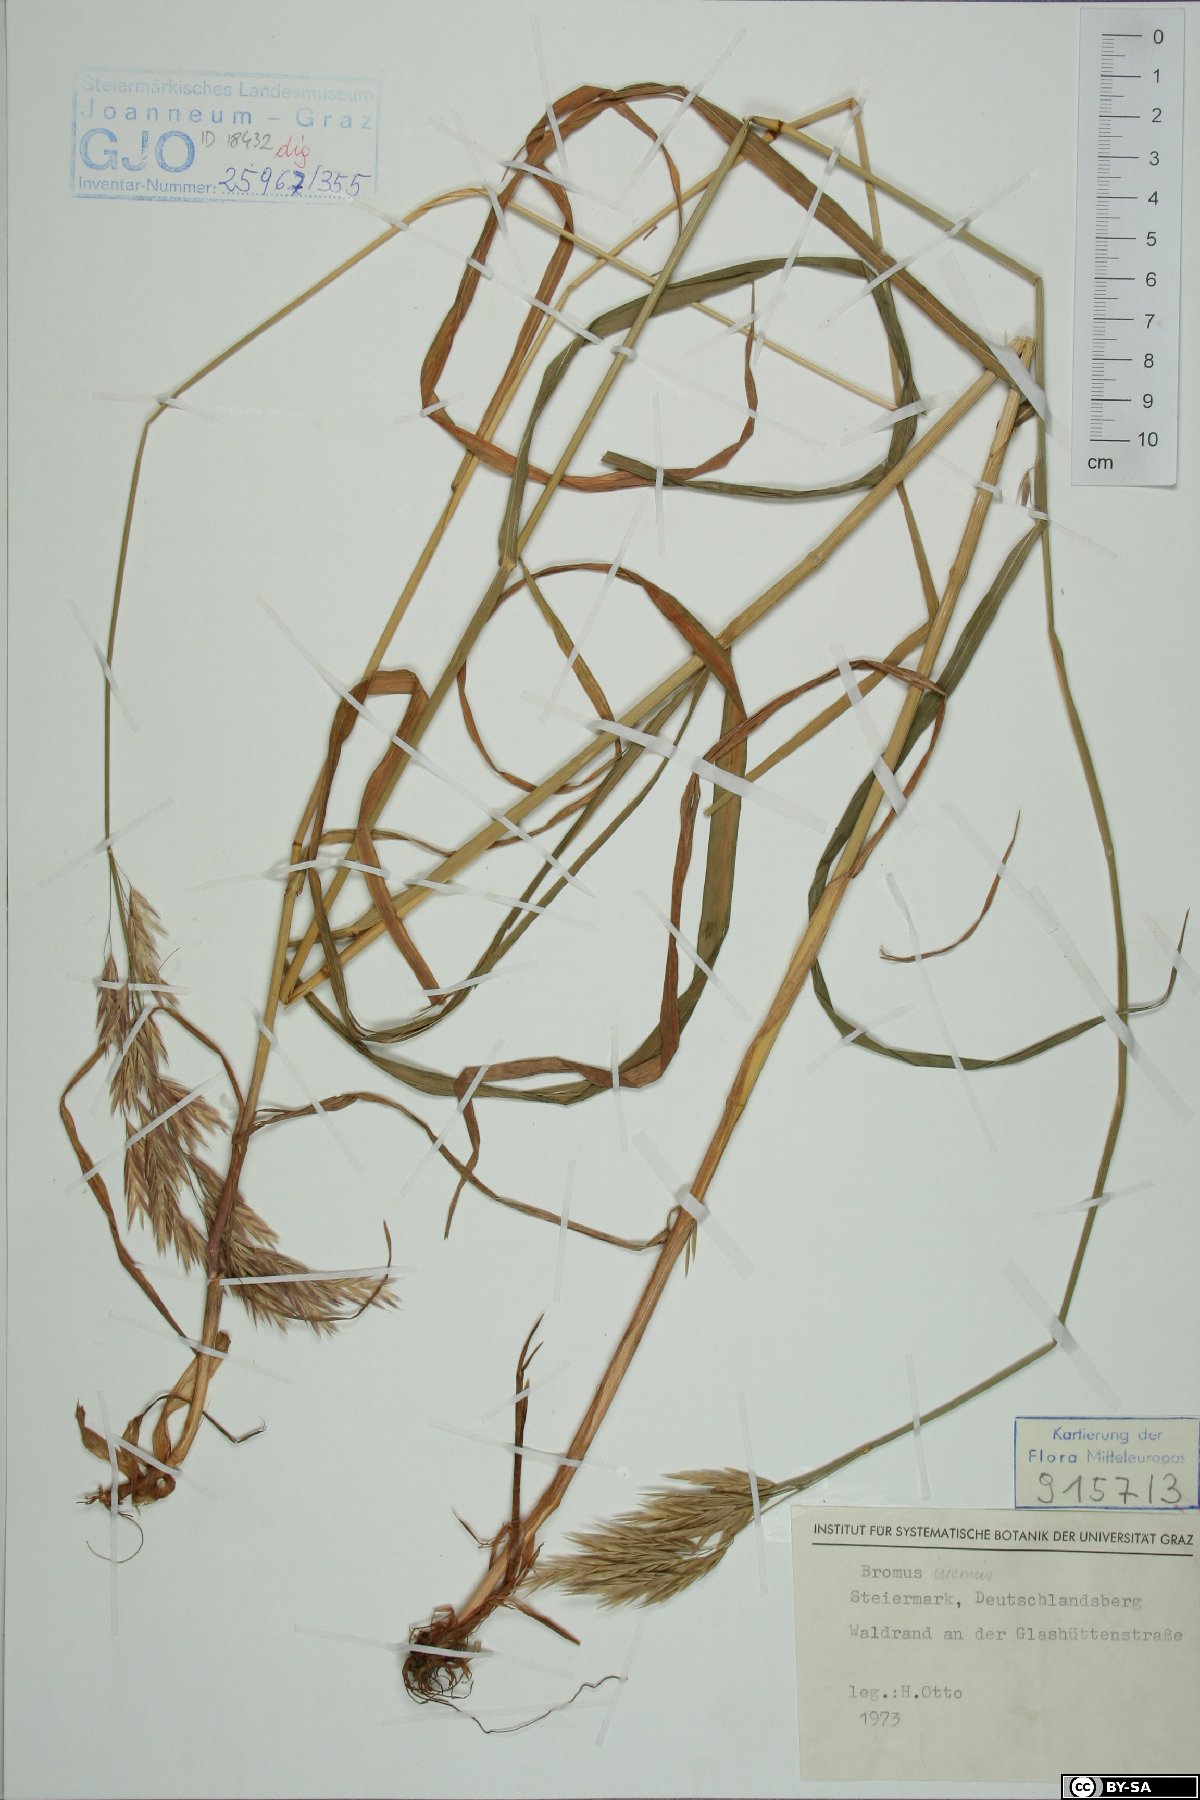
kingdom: Plantae
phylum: Tracheophyta
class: Liliopsida
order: Poales
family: Poaceae
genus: Bromus
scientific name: Bromus inermis
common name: Smooth brome
